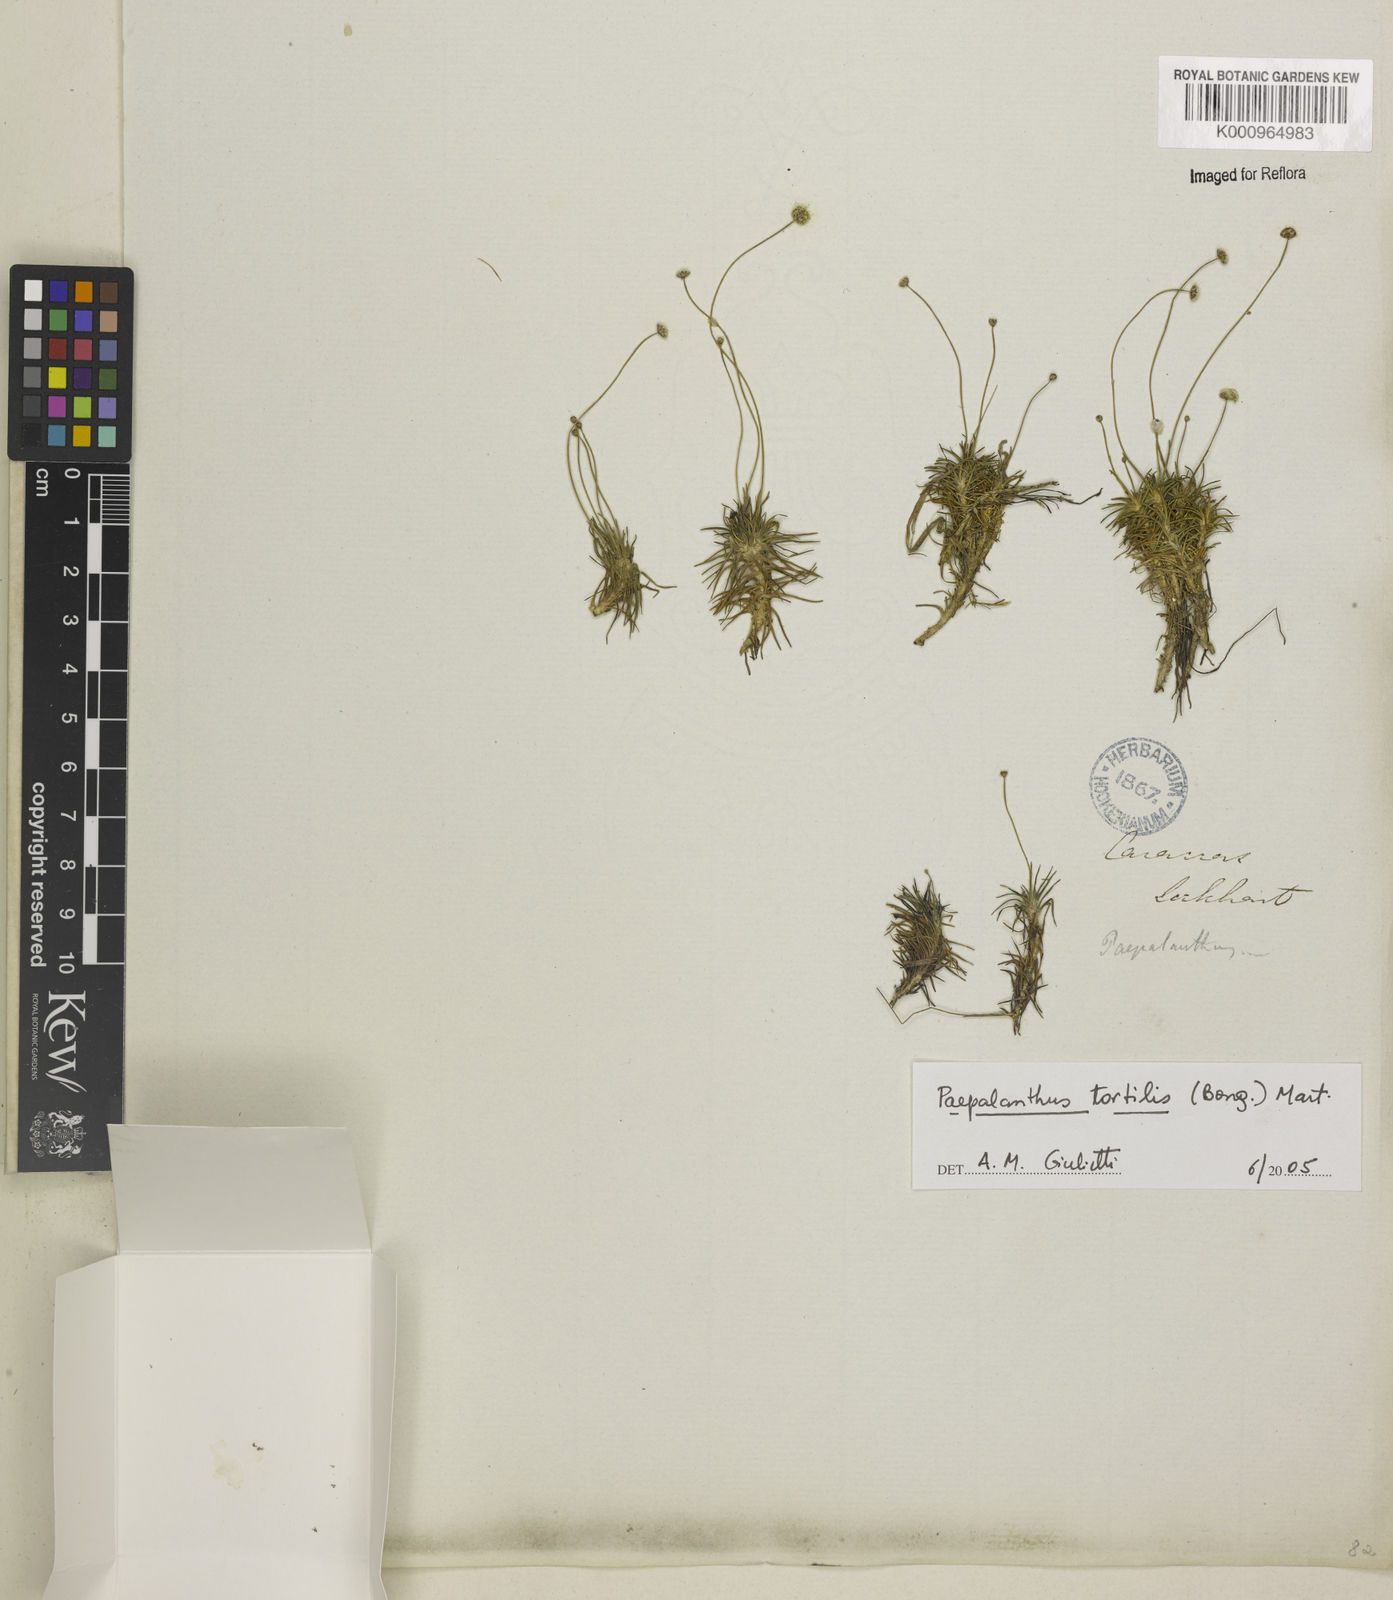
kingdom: Plantae
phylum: Tracheophyta
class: Liliopsida
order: Poales
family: Eriocaulaceae
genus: Paepalanthus
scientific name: Paepalanthus
